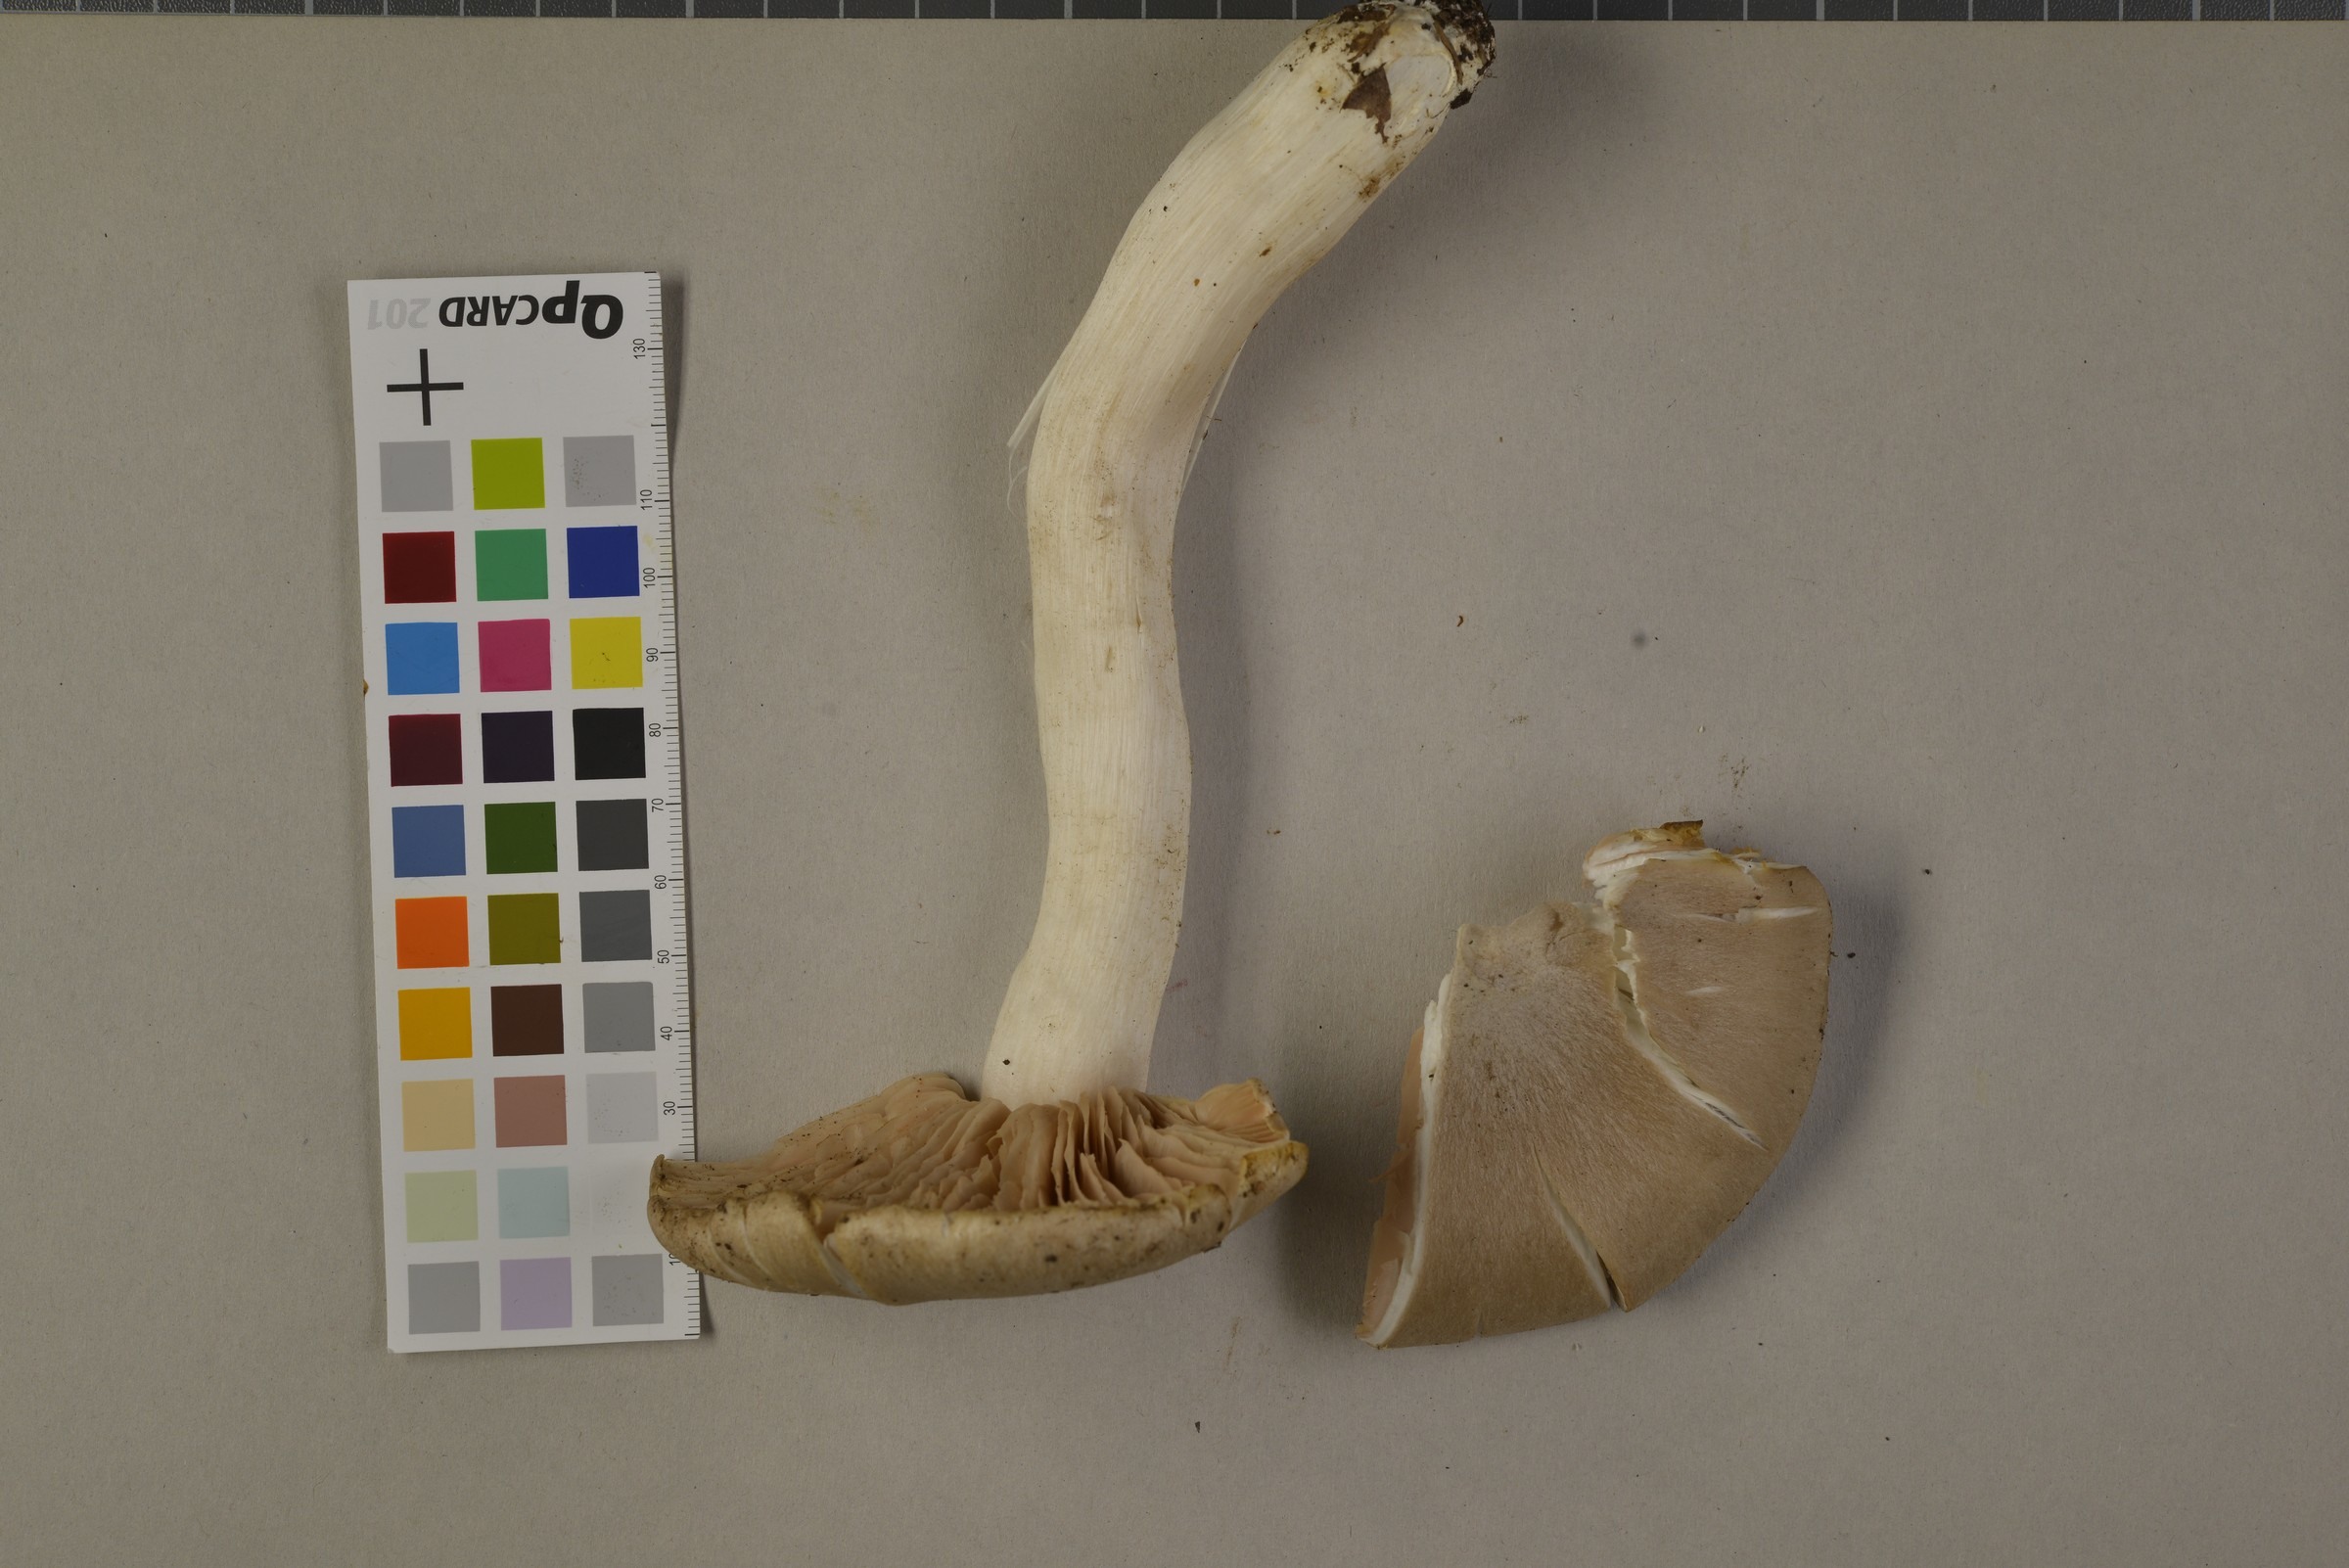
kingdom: Fungi
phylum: Basidiomycota
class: Agaricomycetes
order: Agaricales
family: Entolomataceae
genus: Entoloma
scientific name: Entoloma sinuatum
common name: Livid pinkgill
